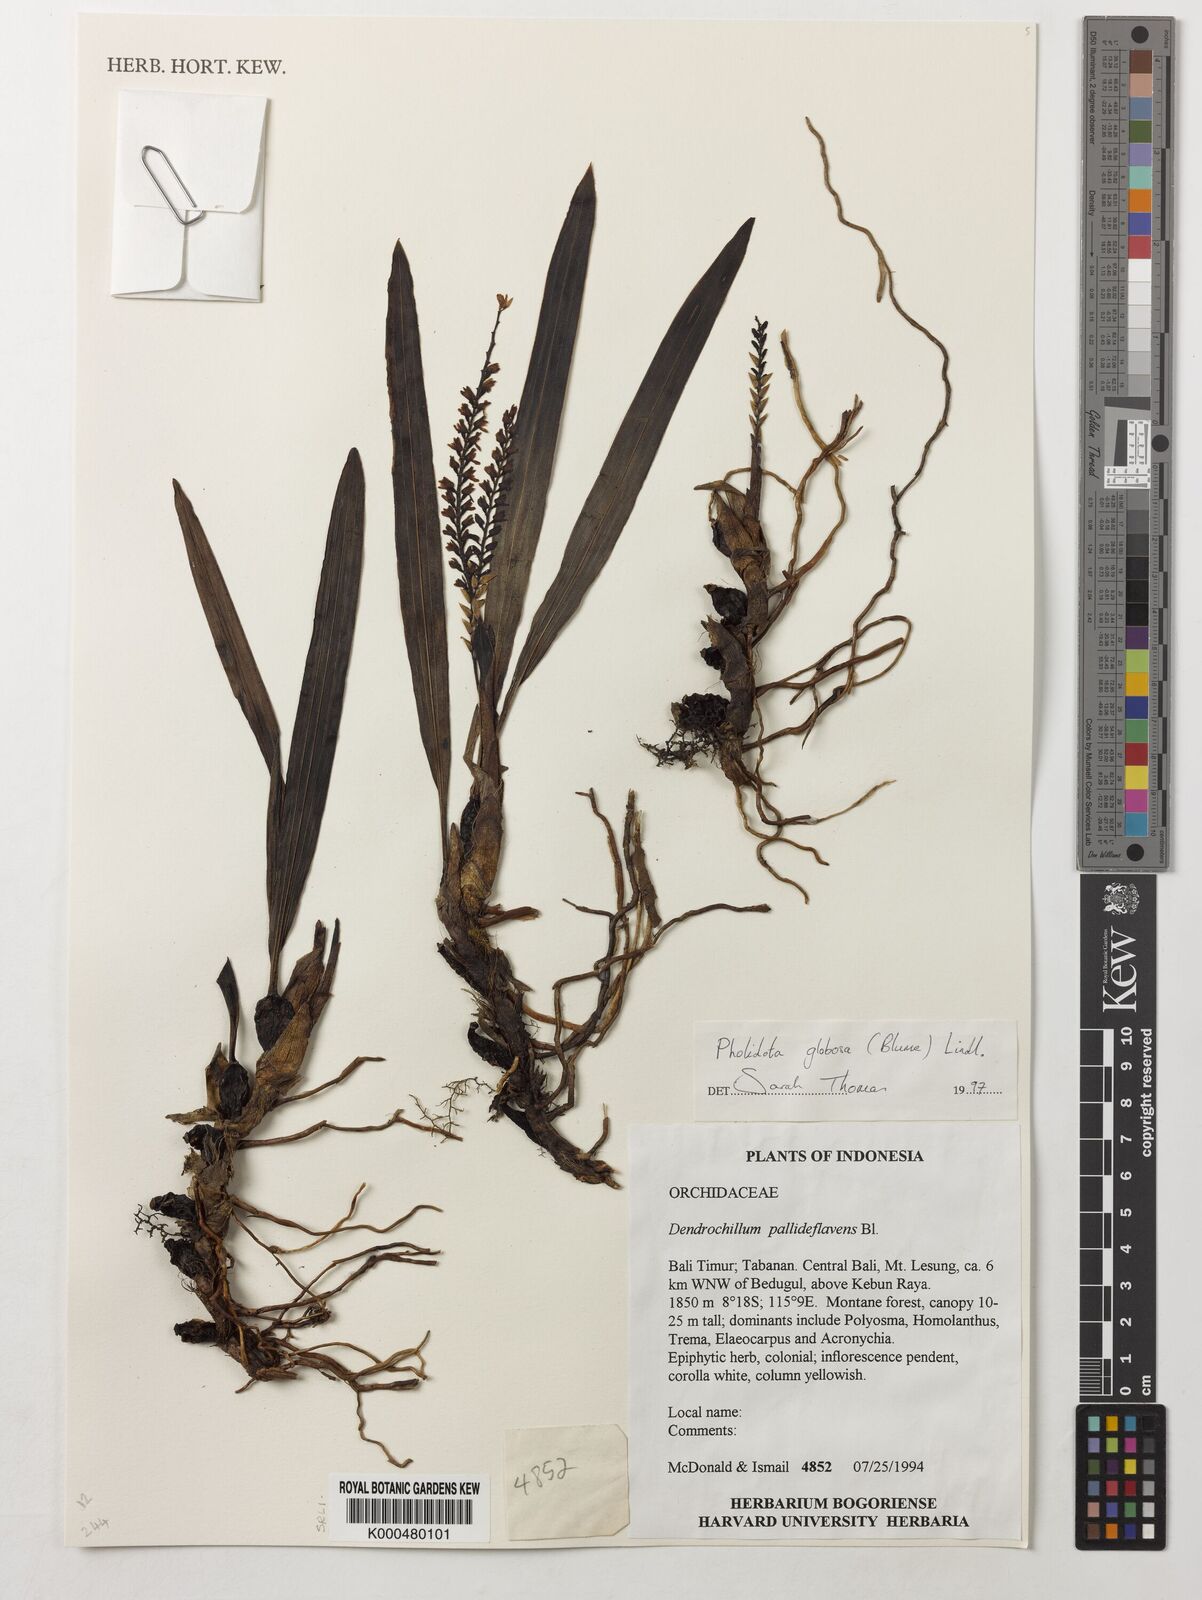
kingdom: Plantae
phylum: Tracheophyta
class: Liliopsida
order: Asparagales
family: Orchidaceae
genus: Coelogyne
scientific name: Coelogyne globosa
